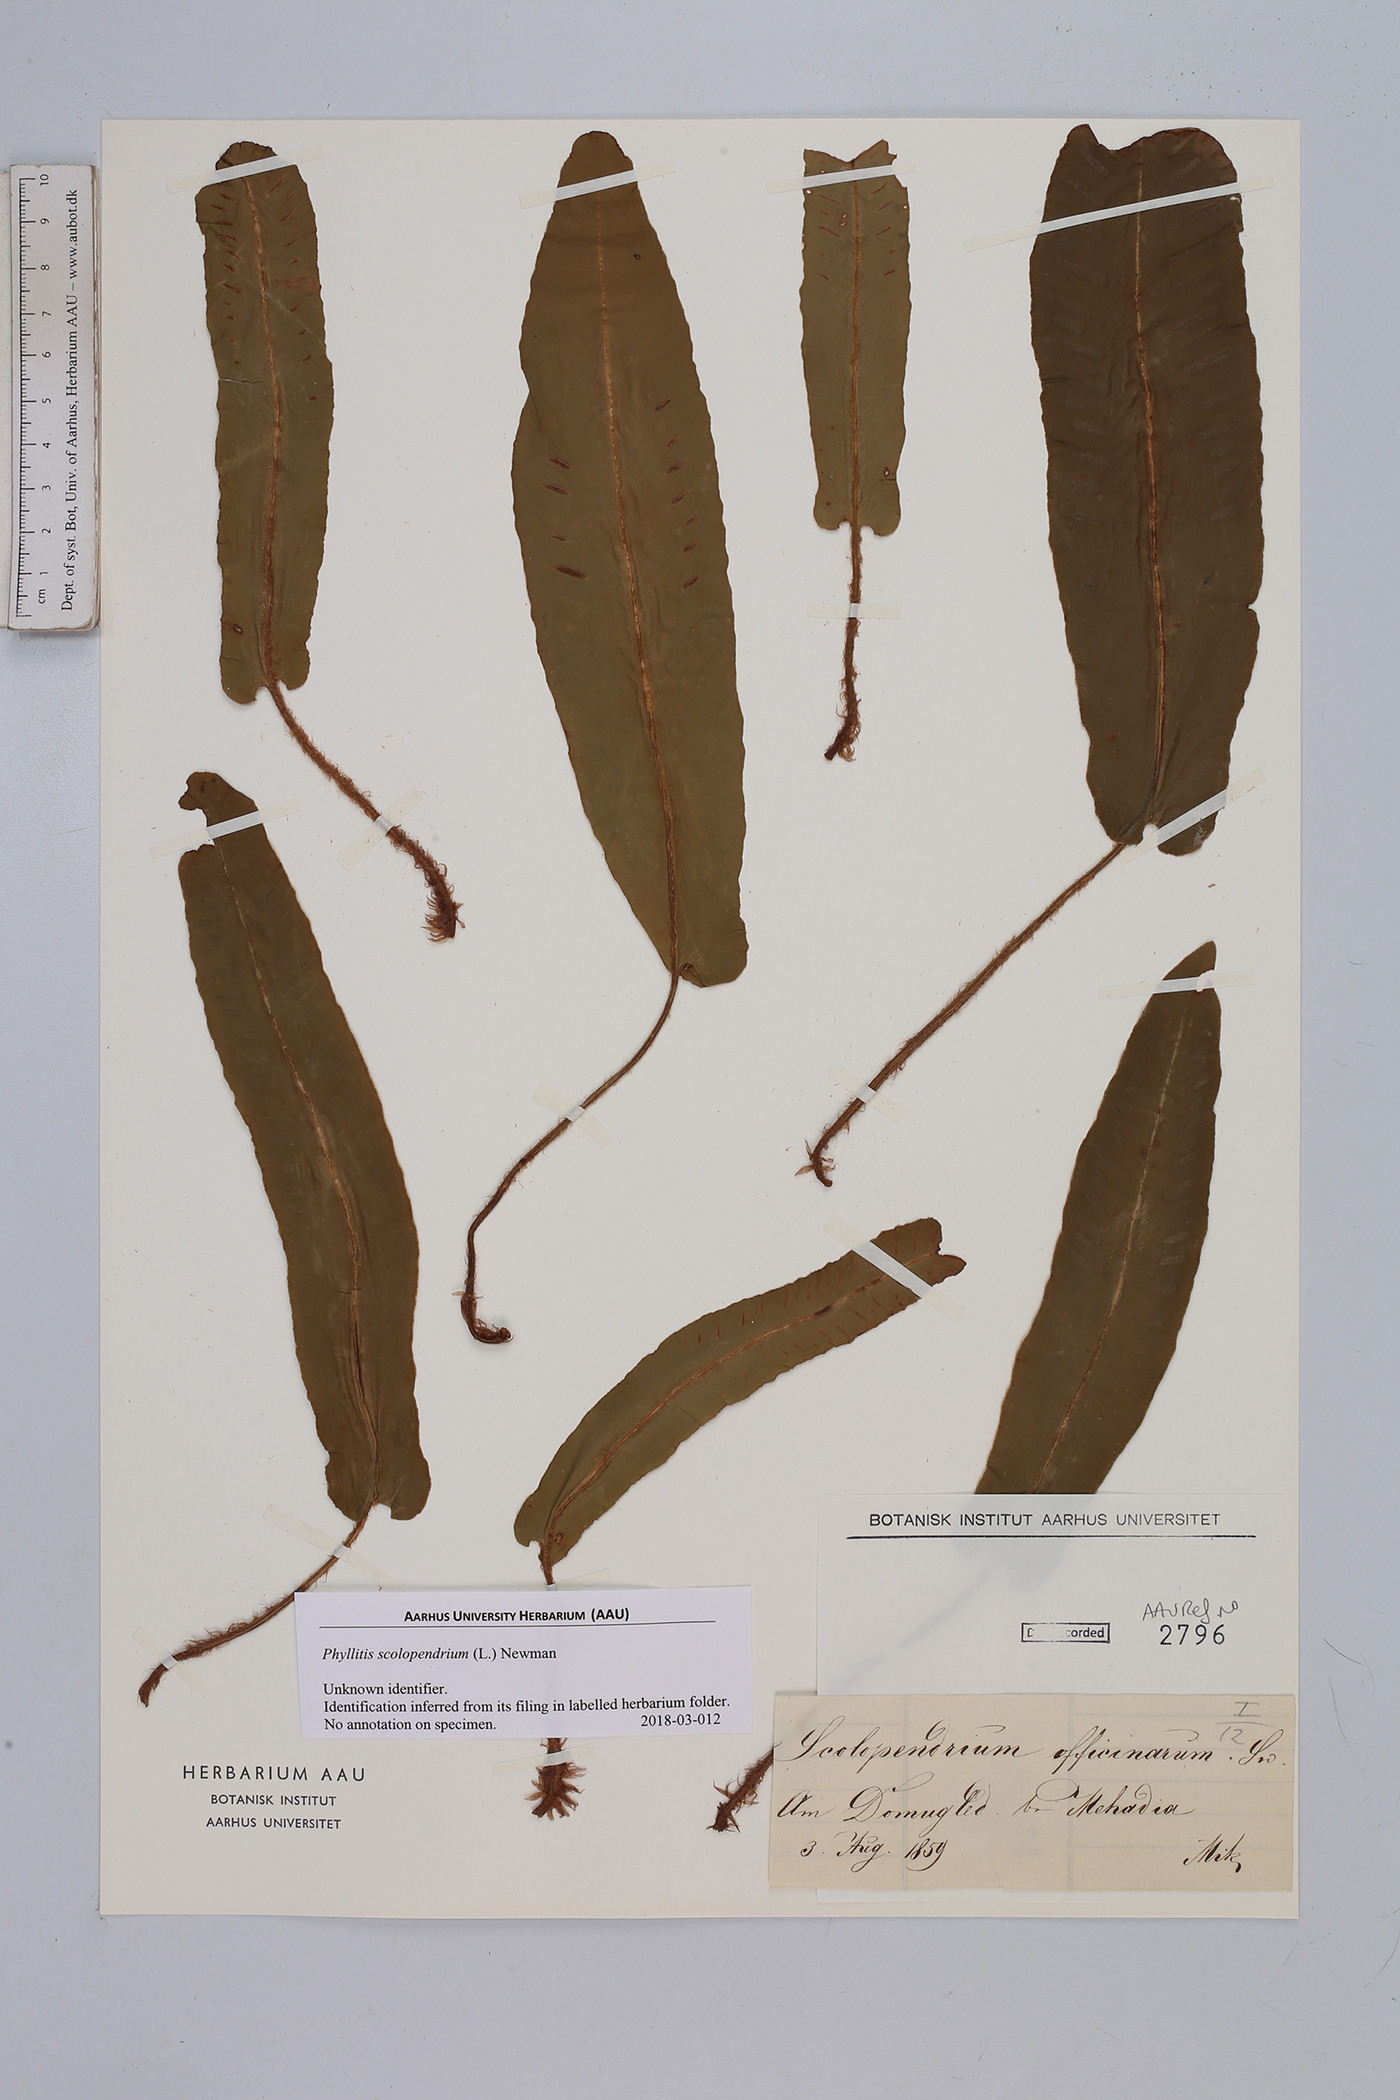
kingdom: Plantae
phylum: Tracheophyta
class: Polypodiopsida
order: Polypodiales
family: Aspleniaceae
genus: Asplenium
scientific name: Asplenium scolopendrium
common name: Hart's-tongue fern
